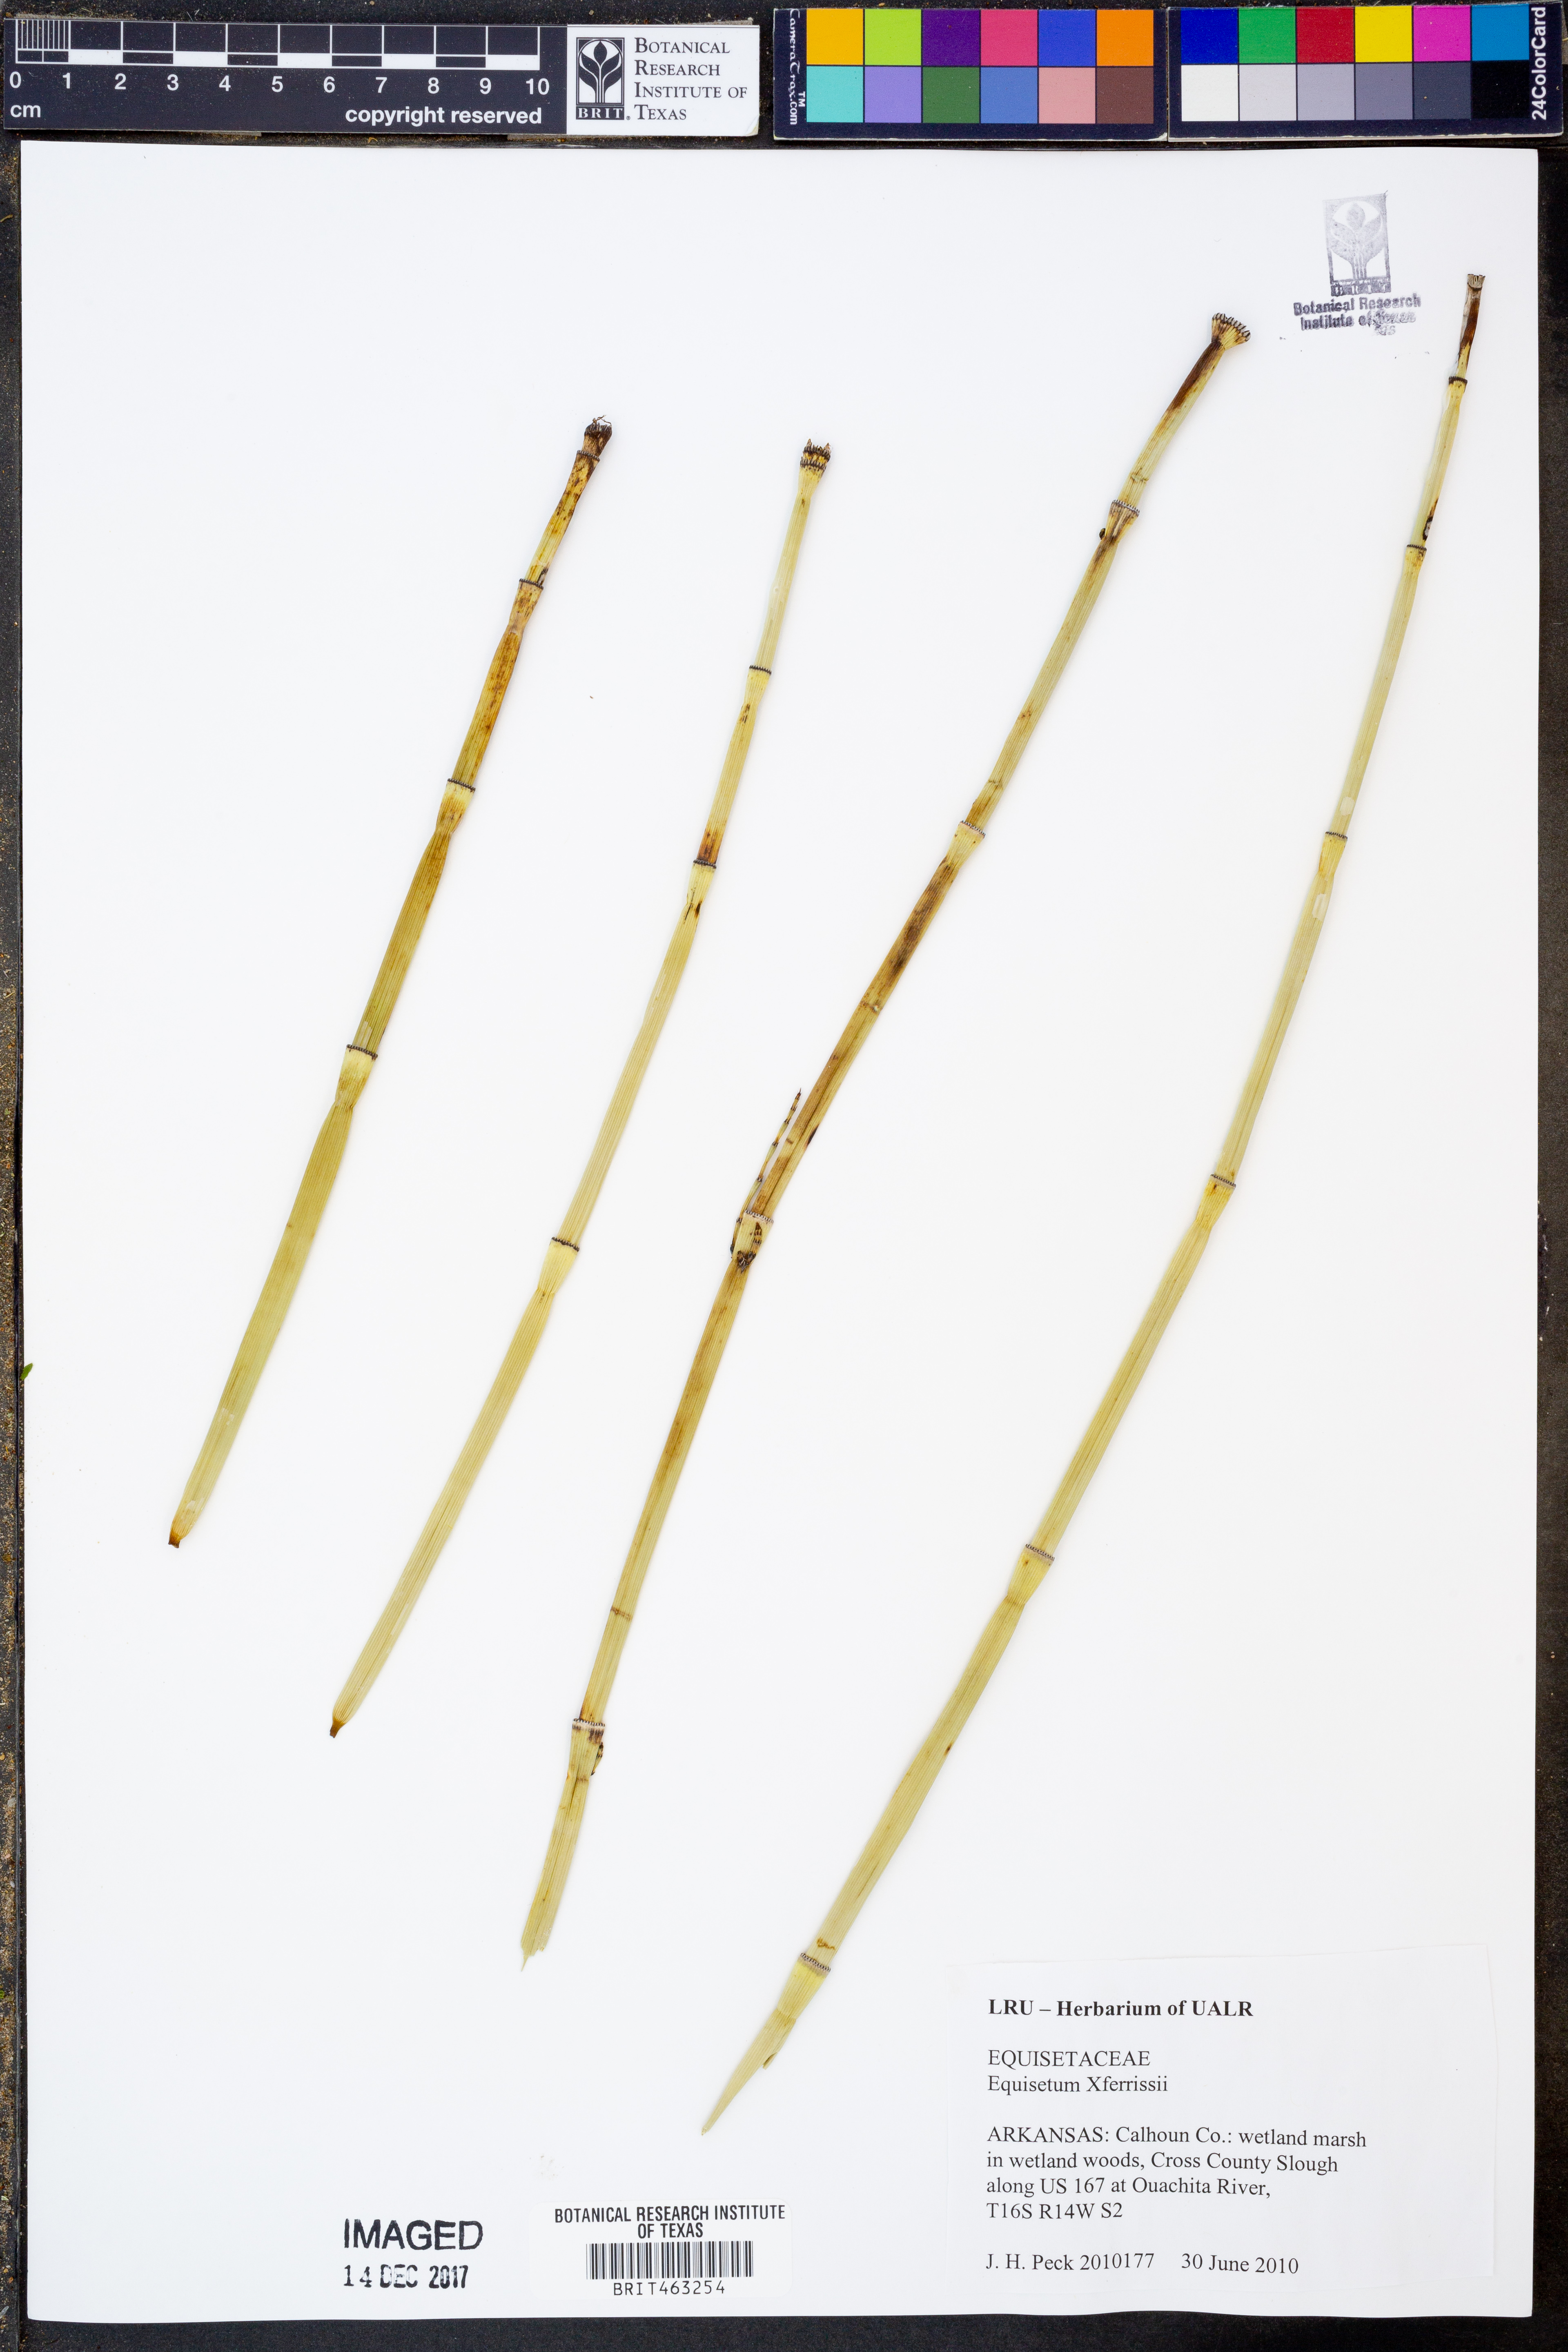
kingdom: Plantae
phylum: Tracheophyta
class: Polypodiopsida
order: Equisetales
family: Equisetaceae
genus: Equisetum
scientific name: Equisetum ferrissii
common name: Ferriss' horsetail
